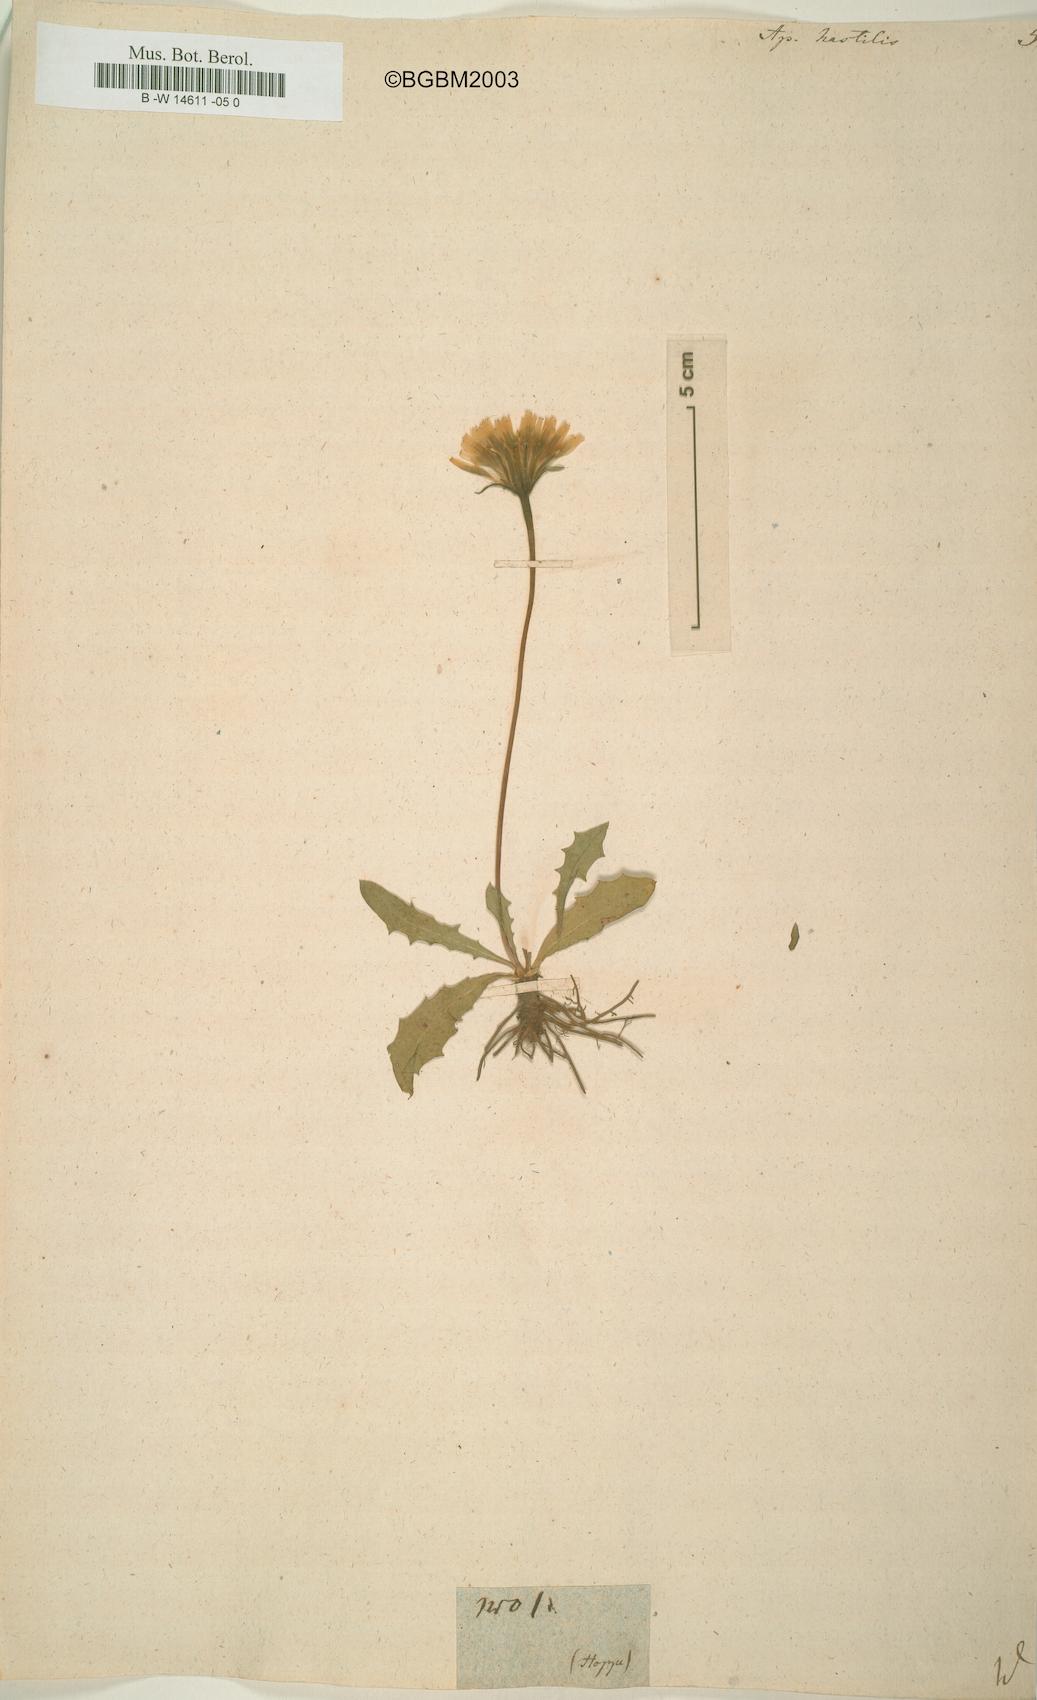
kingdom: Plantae
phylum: Tracheophyta
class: Magnoliopsida
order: Asterales
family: Asteraceae
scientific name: Asteraceae
